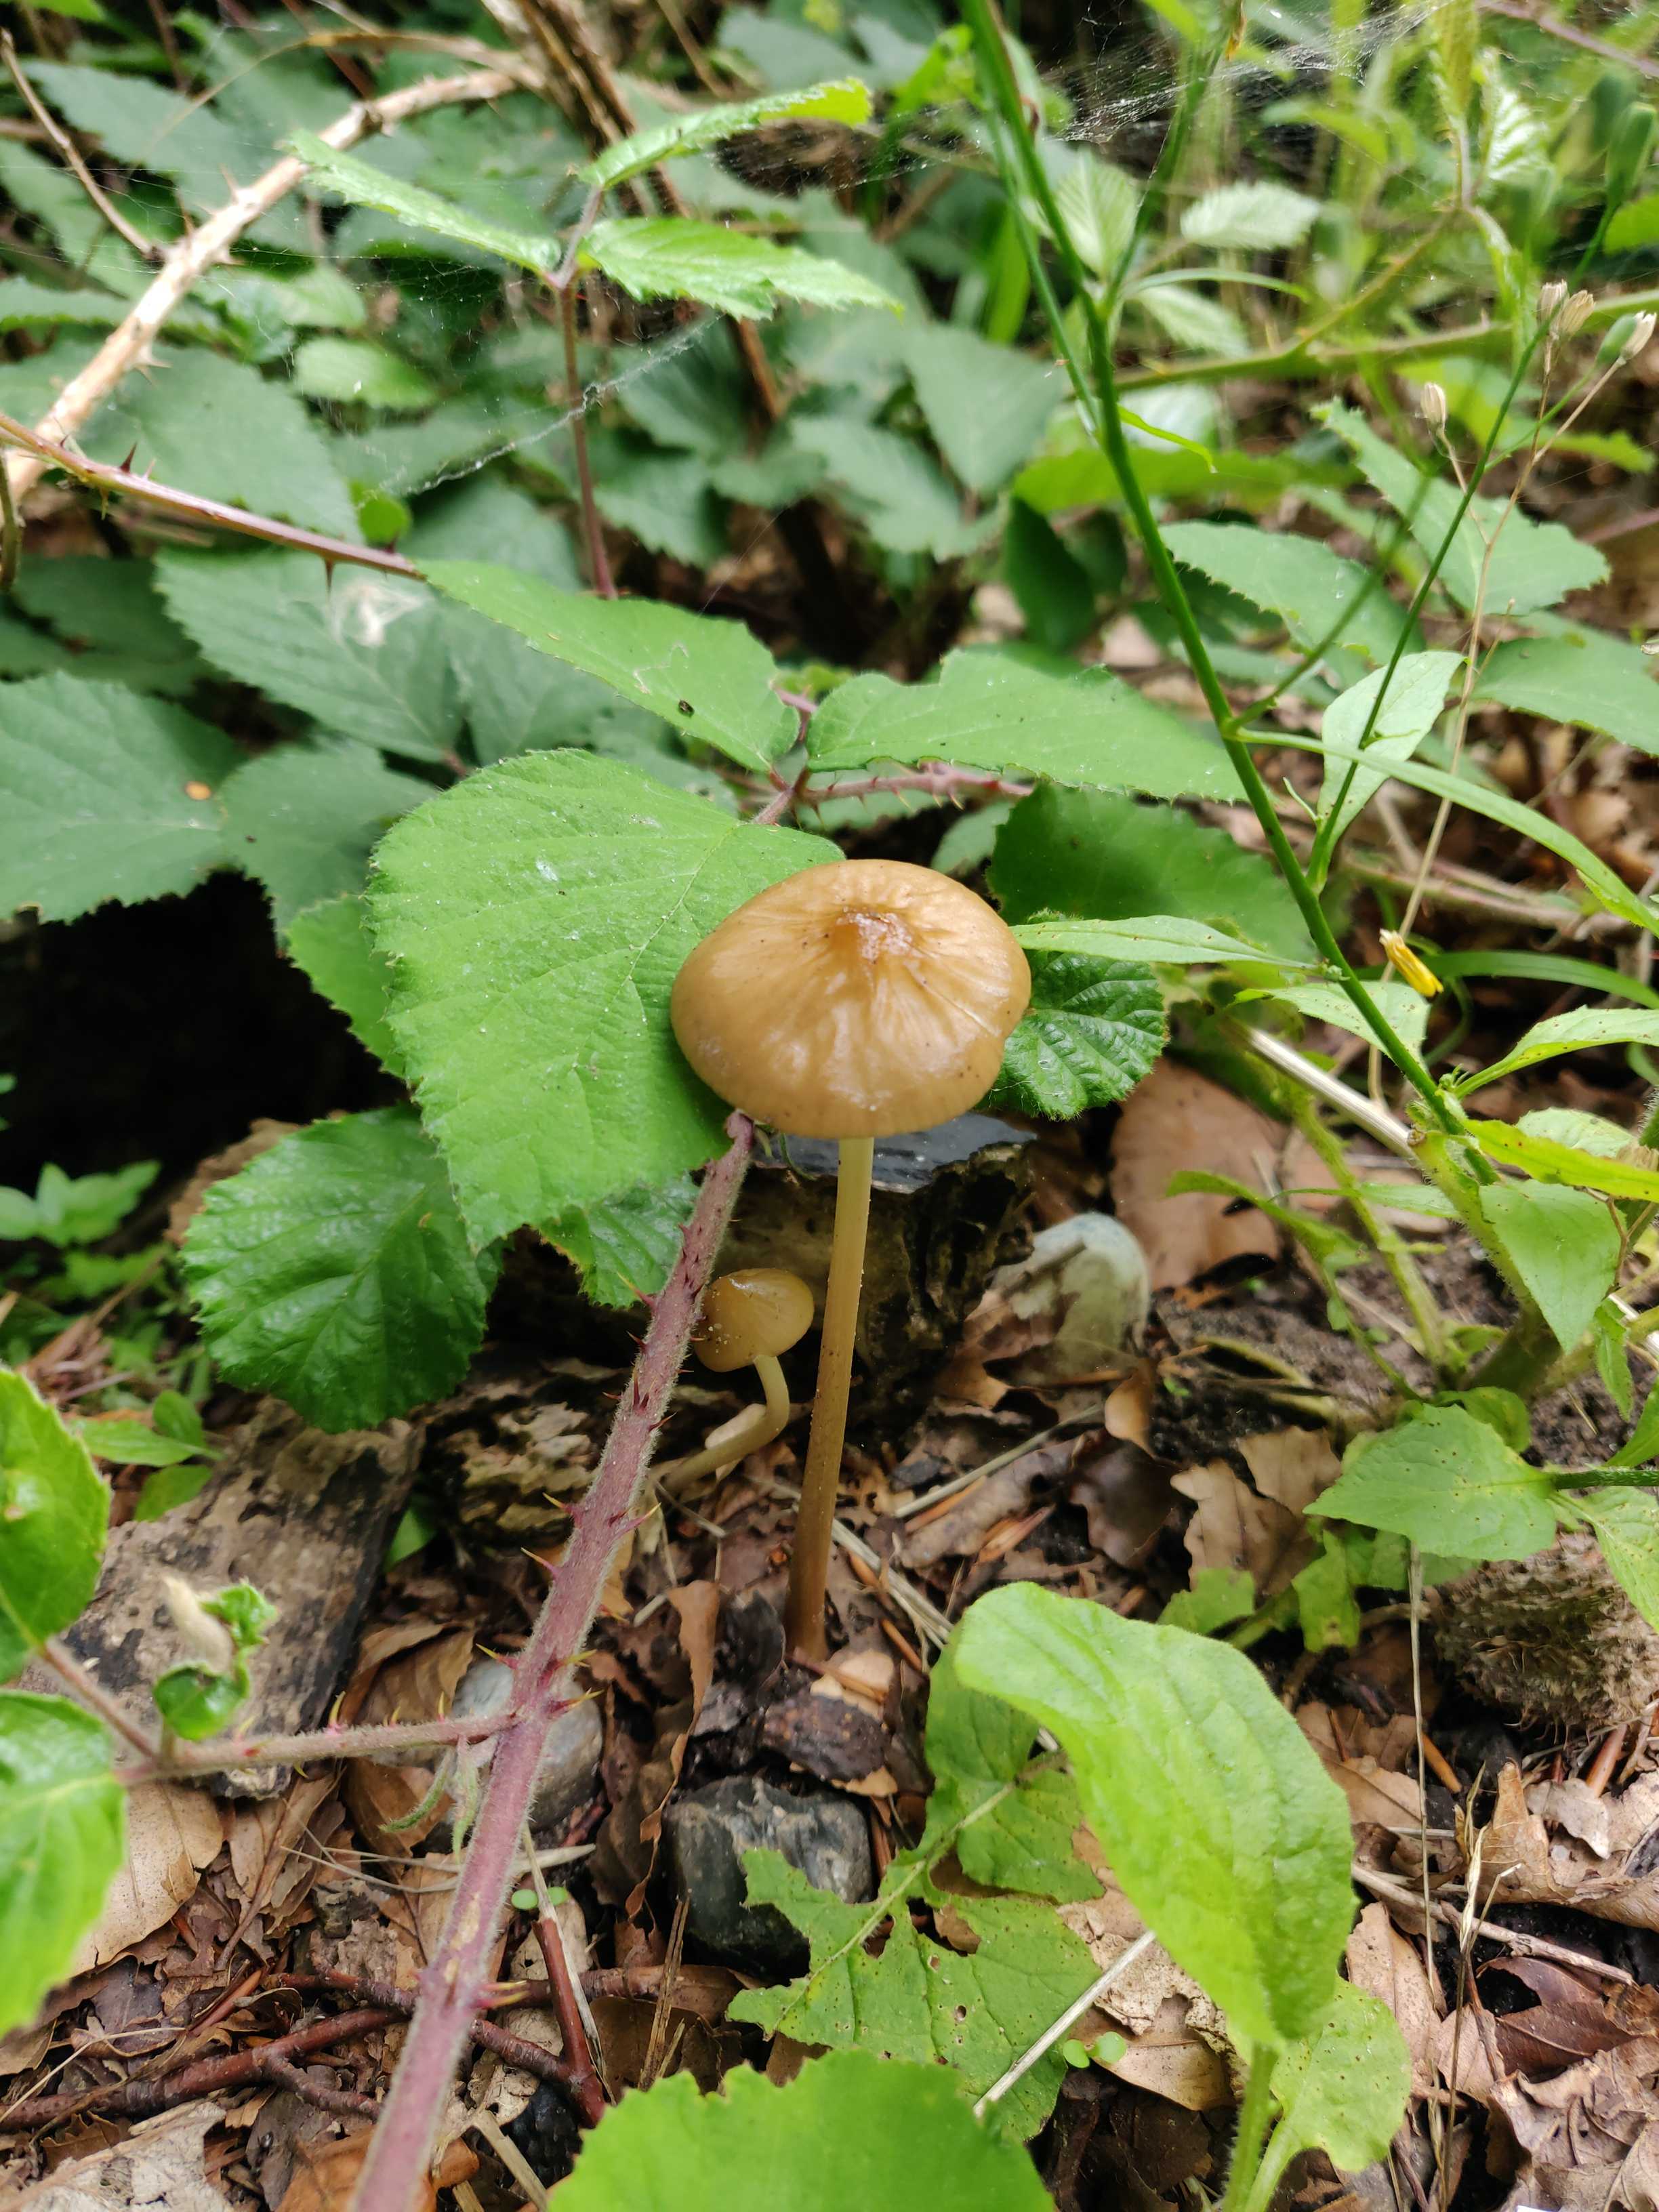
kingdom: Fungi
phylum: Basidiomycota
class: Agaricomycetes
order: Agaricales
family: Physalacriaceae
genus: Hymenopellis
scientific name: Hymenopellis radicata
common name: almindelig pælerodshat
